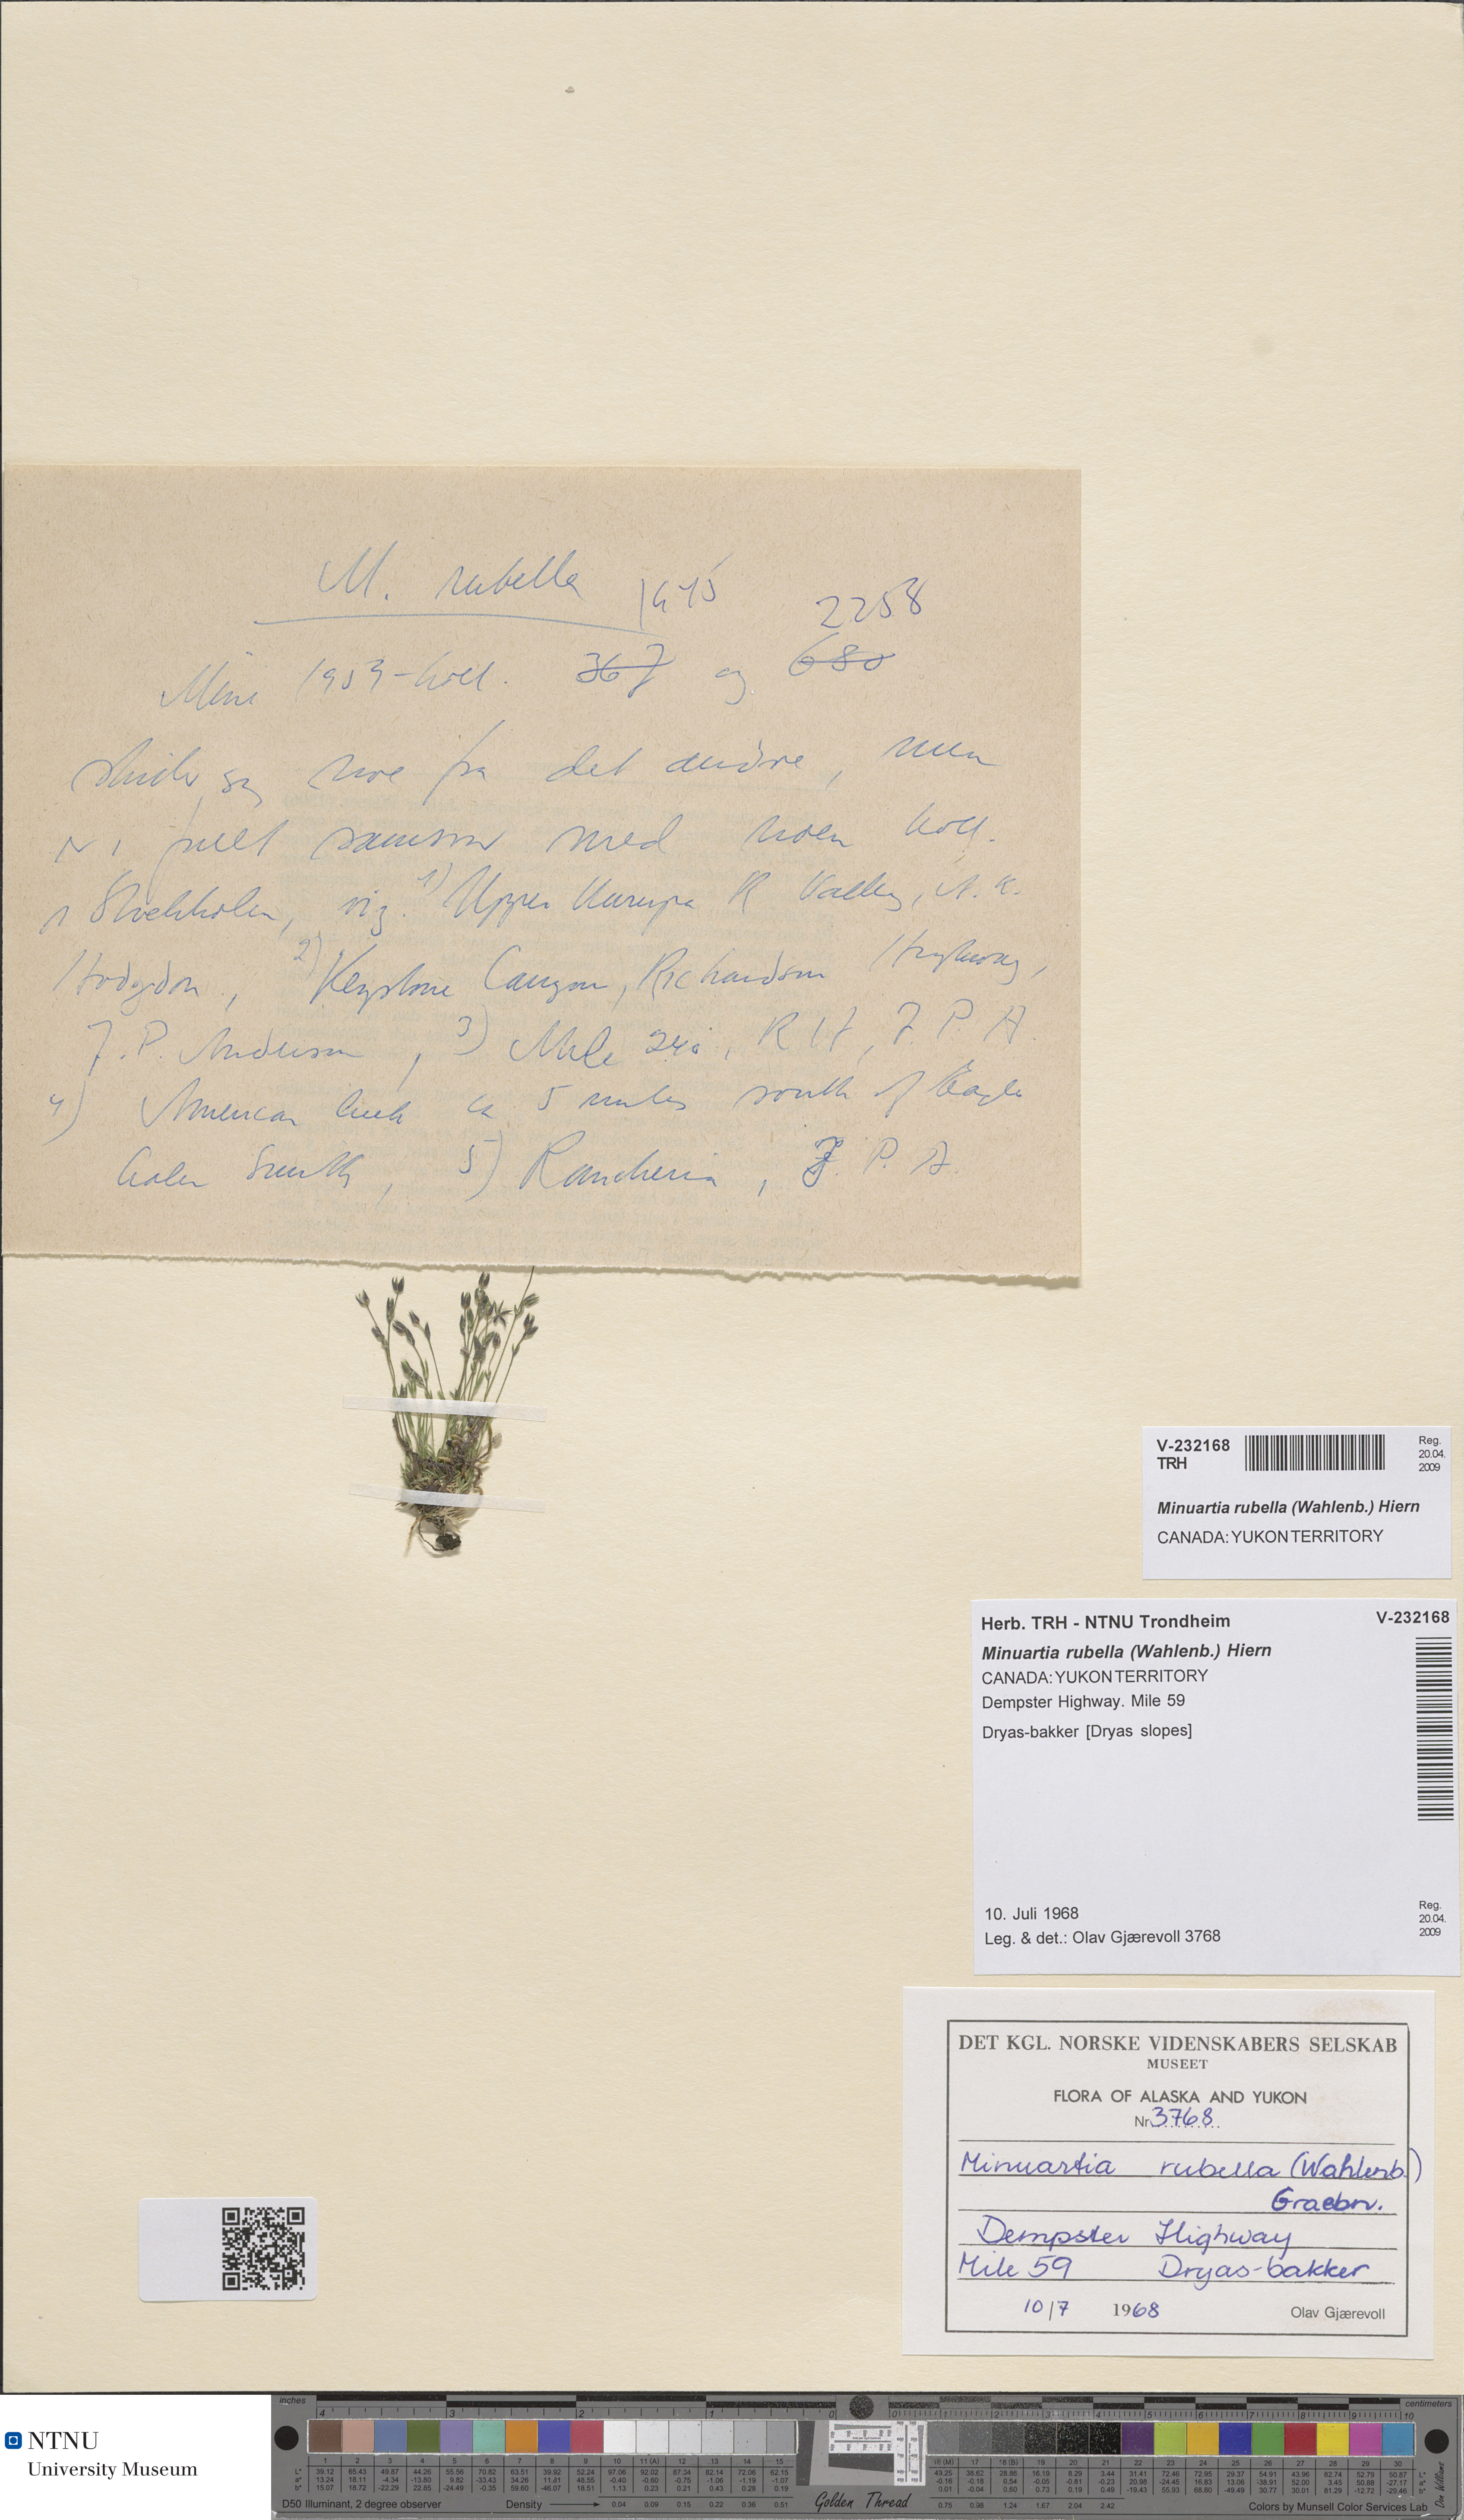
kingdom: Plantae
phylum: Tracheophyta
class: Magnoliopsida
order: Caryophyllales
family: Caryophyllaceae
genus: Sabulina
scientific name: Sabulina rubella
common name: Beautiful sandwort
